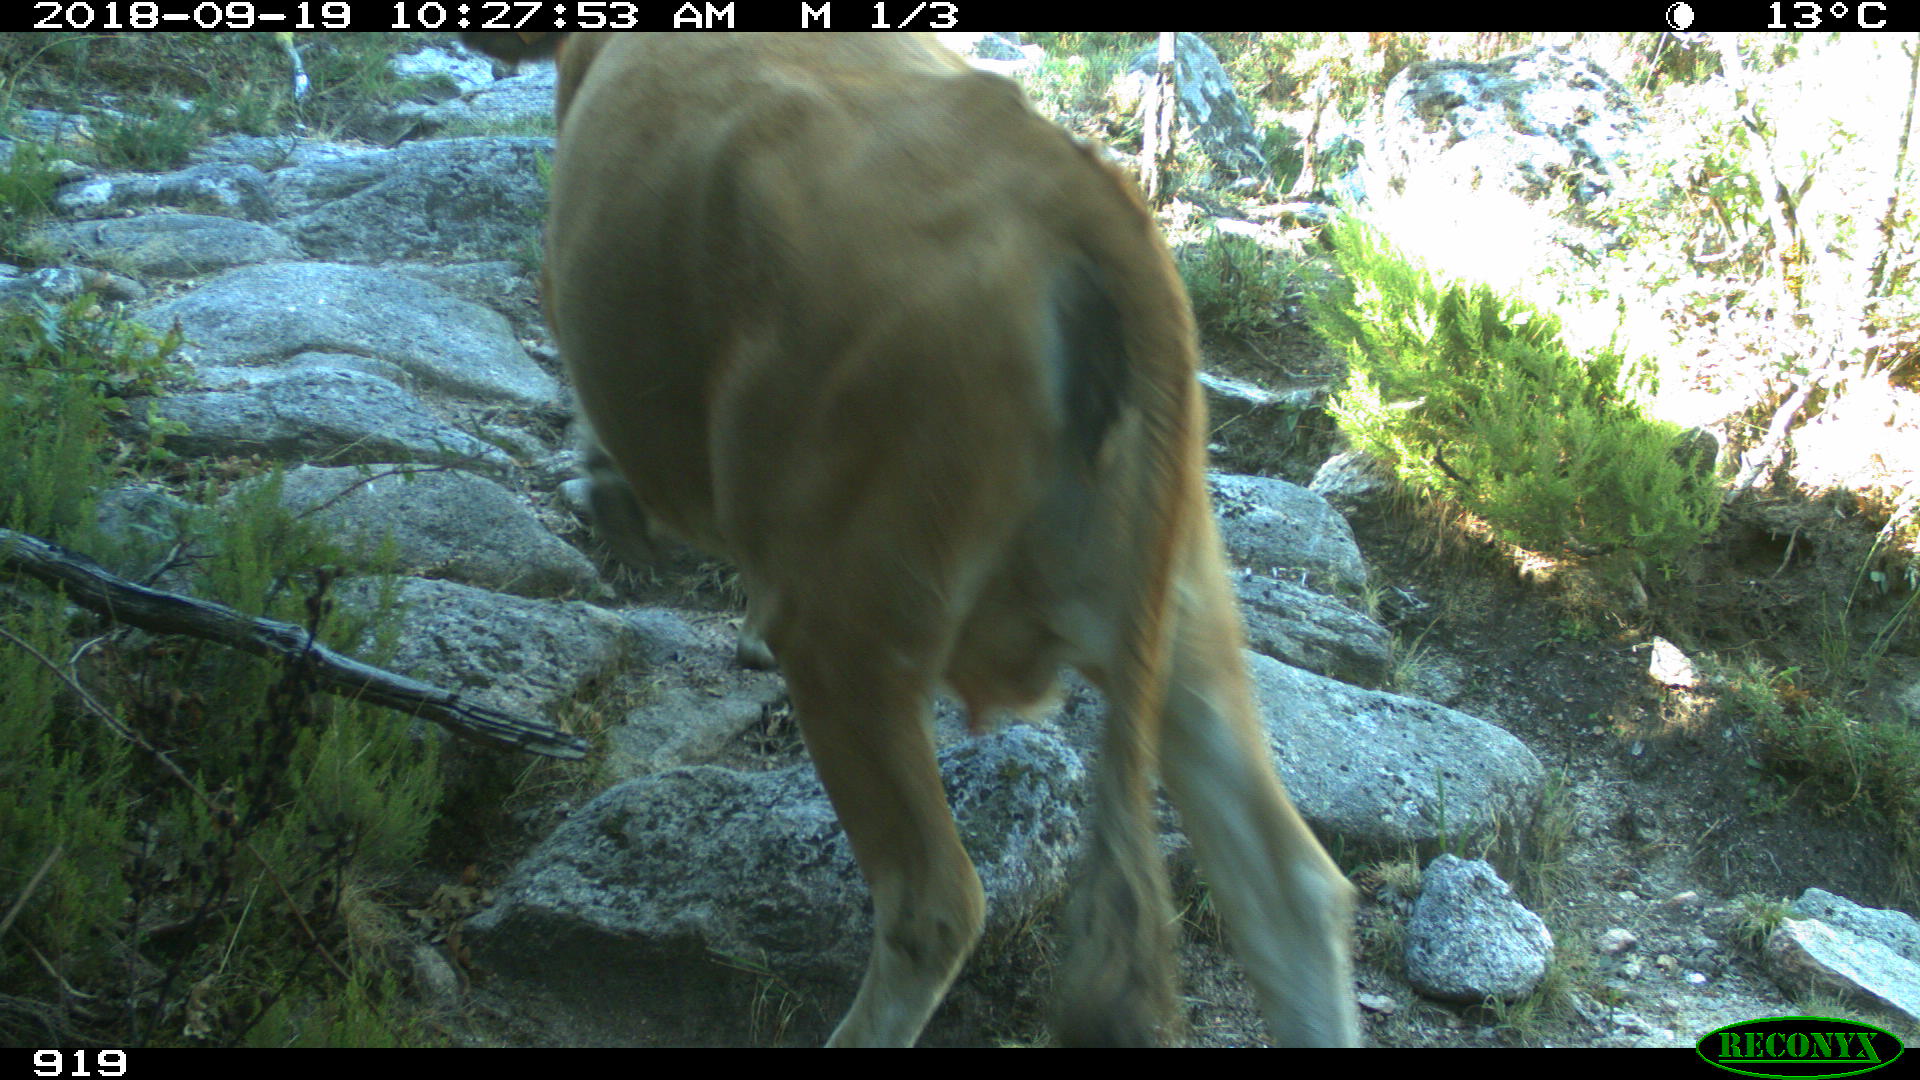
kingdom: Animalia
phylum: Chordata
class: Mammalia
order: Artiodactyla
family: Bovidae
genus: Bos
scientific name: Bos taurus
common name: Domesticated cattle
